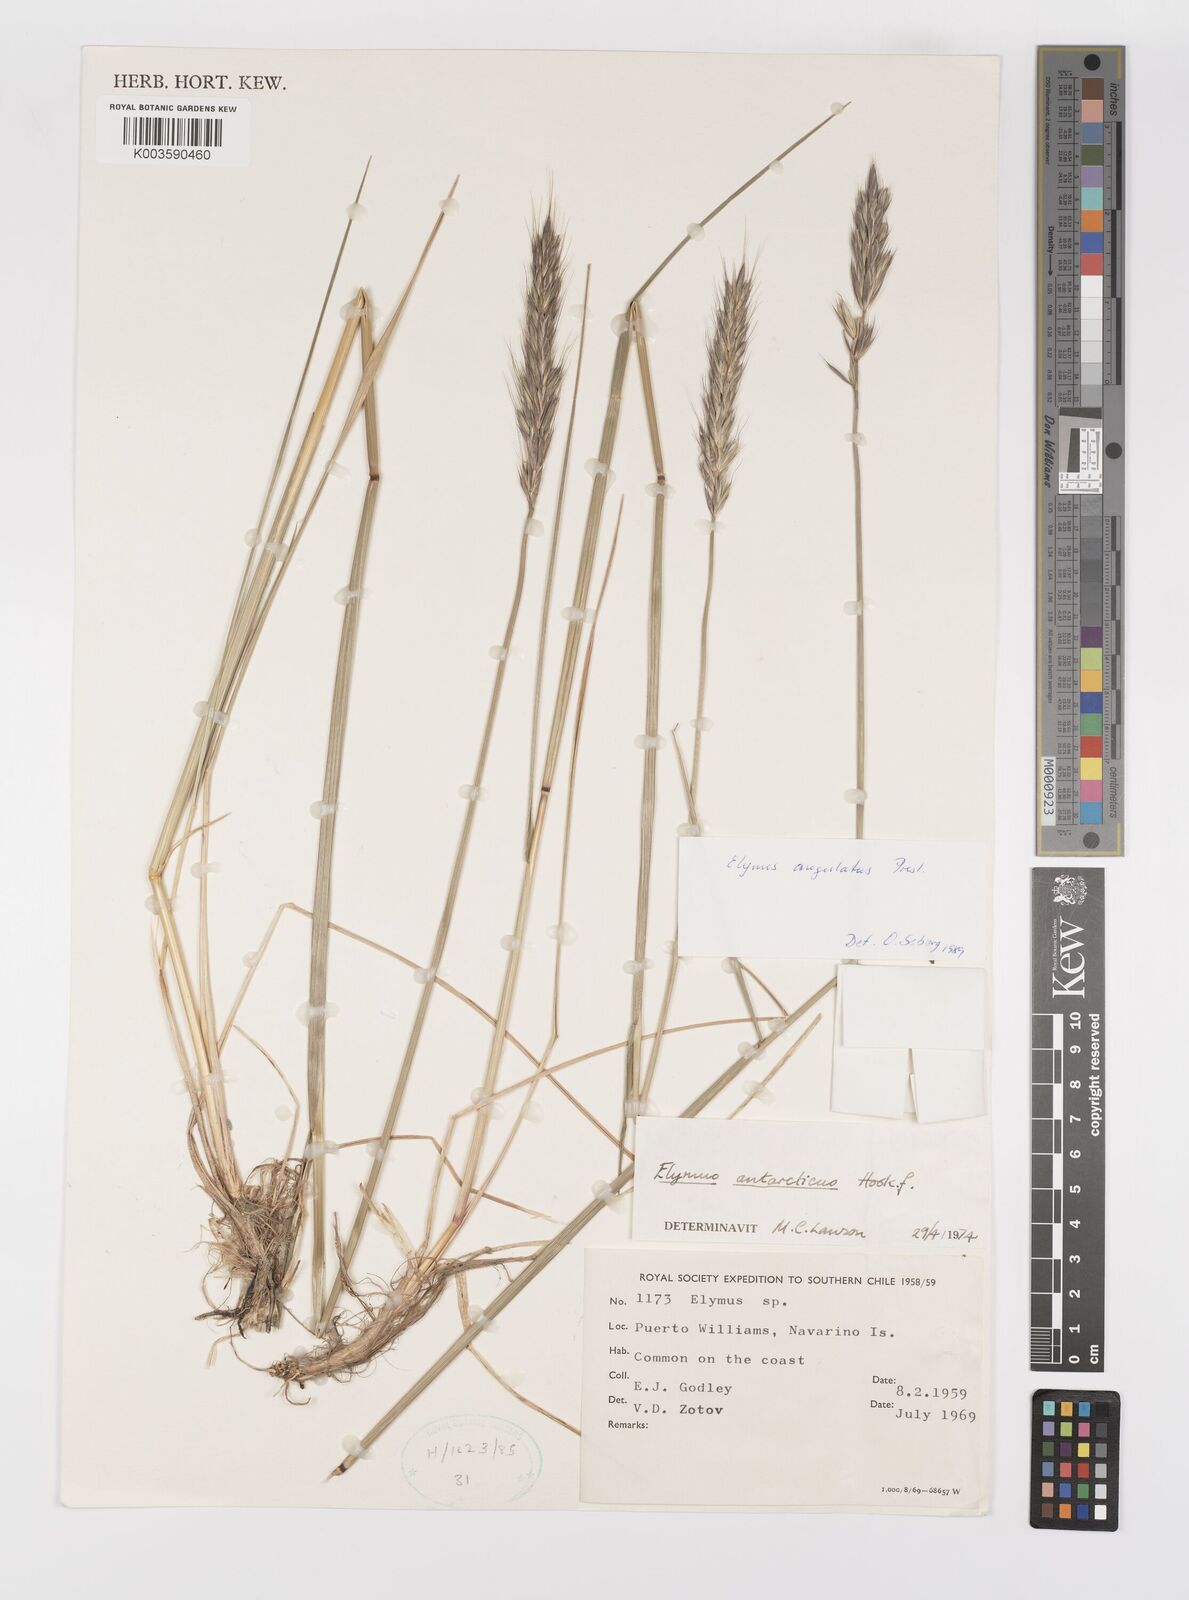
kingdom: Plantae
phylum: Tracheophyta
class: Liliopsida
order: Poales
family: Poaceae
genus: Elymus
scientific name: Elymus angulatus
